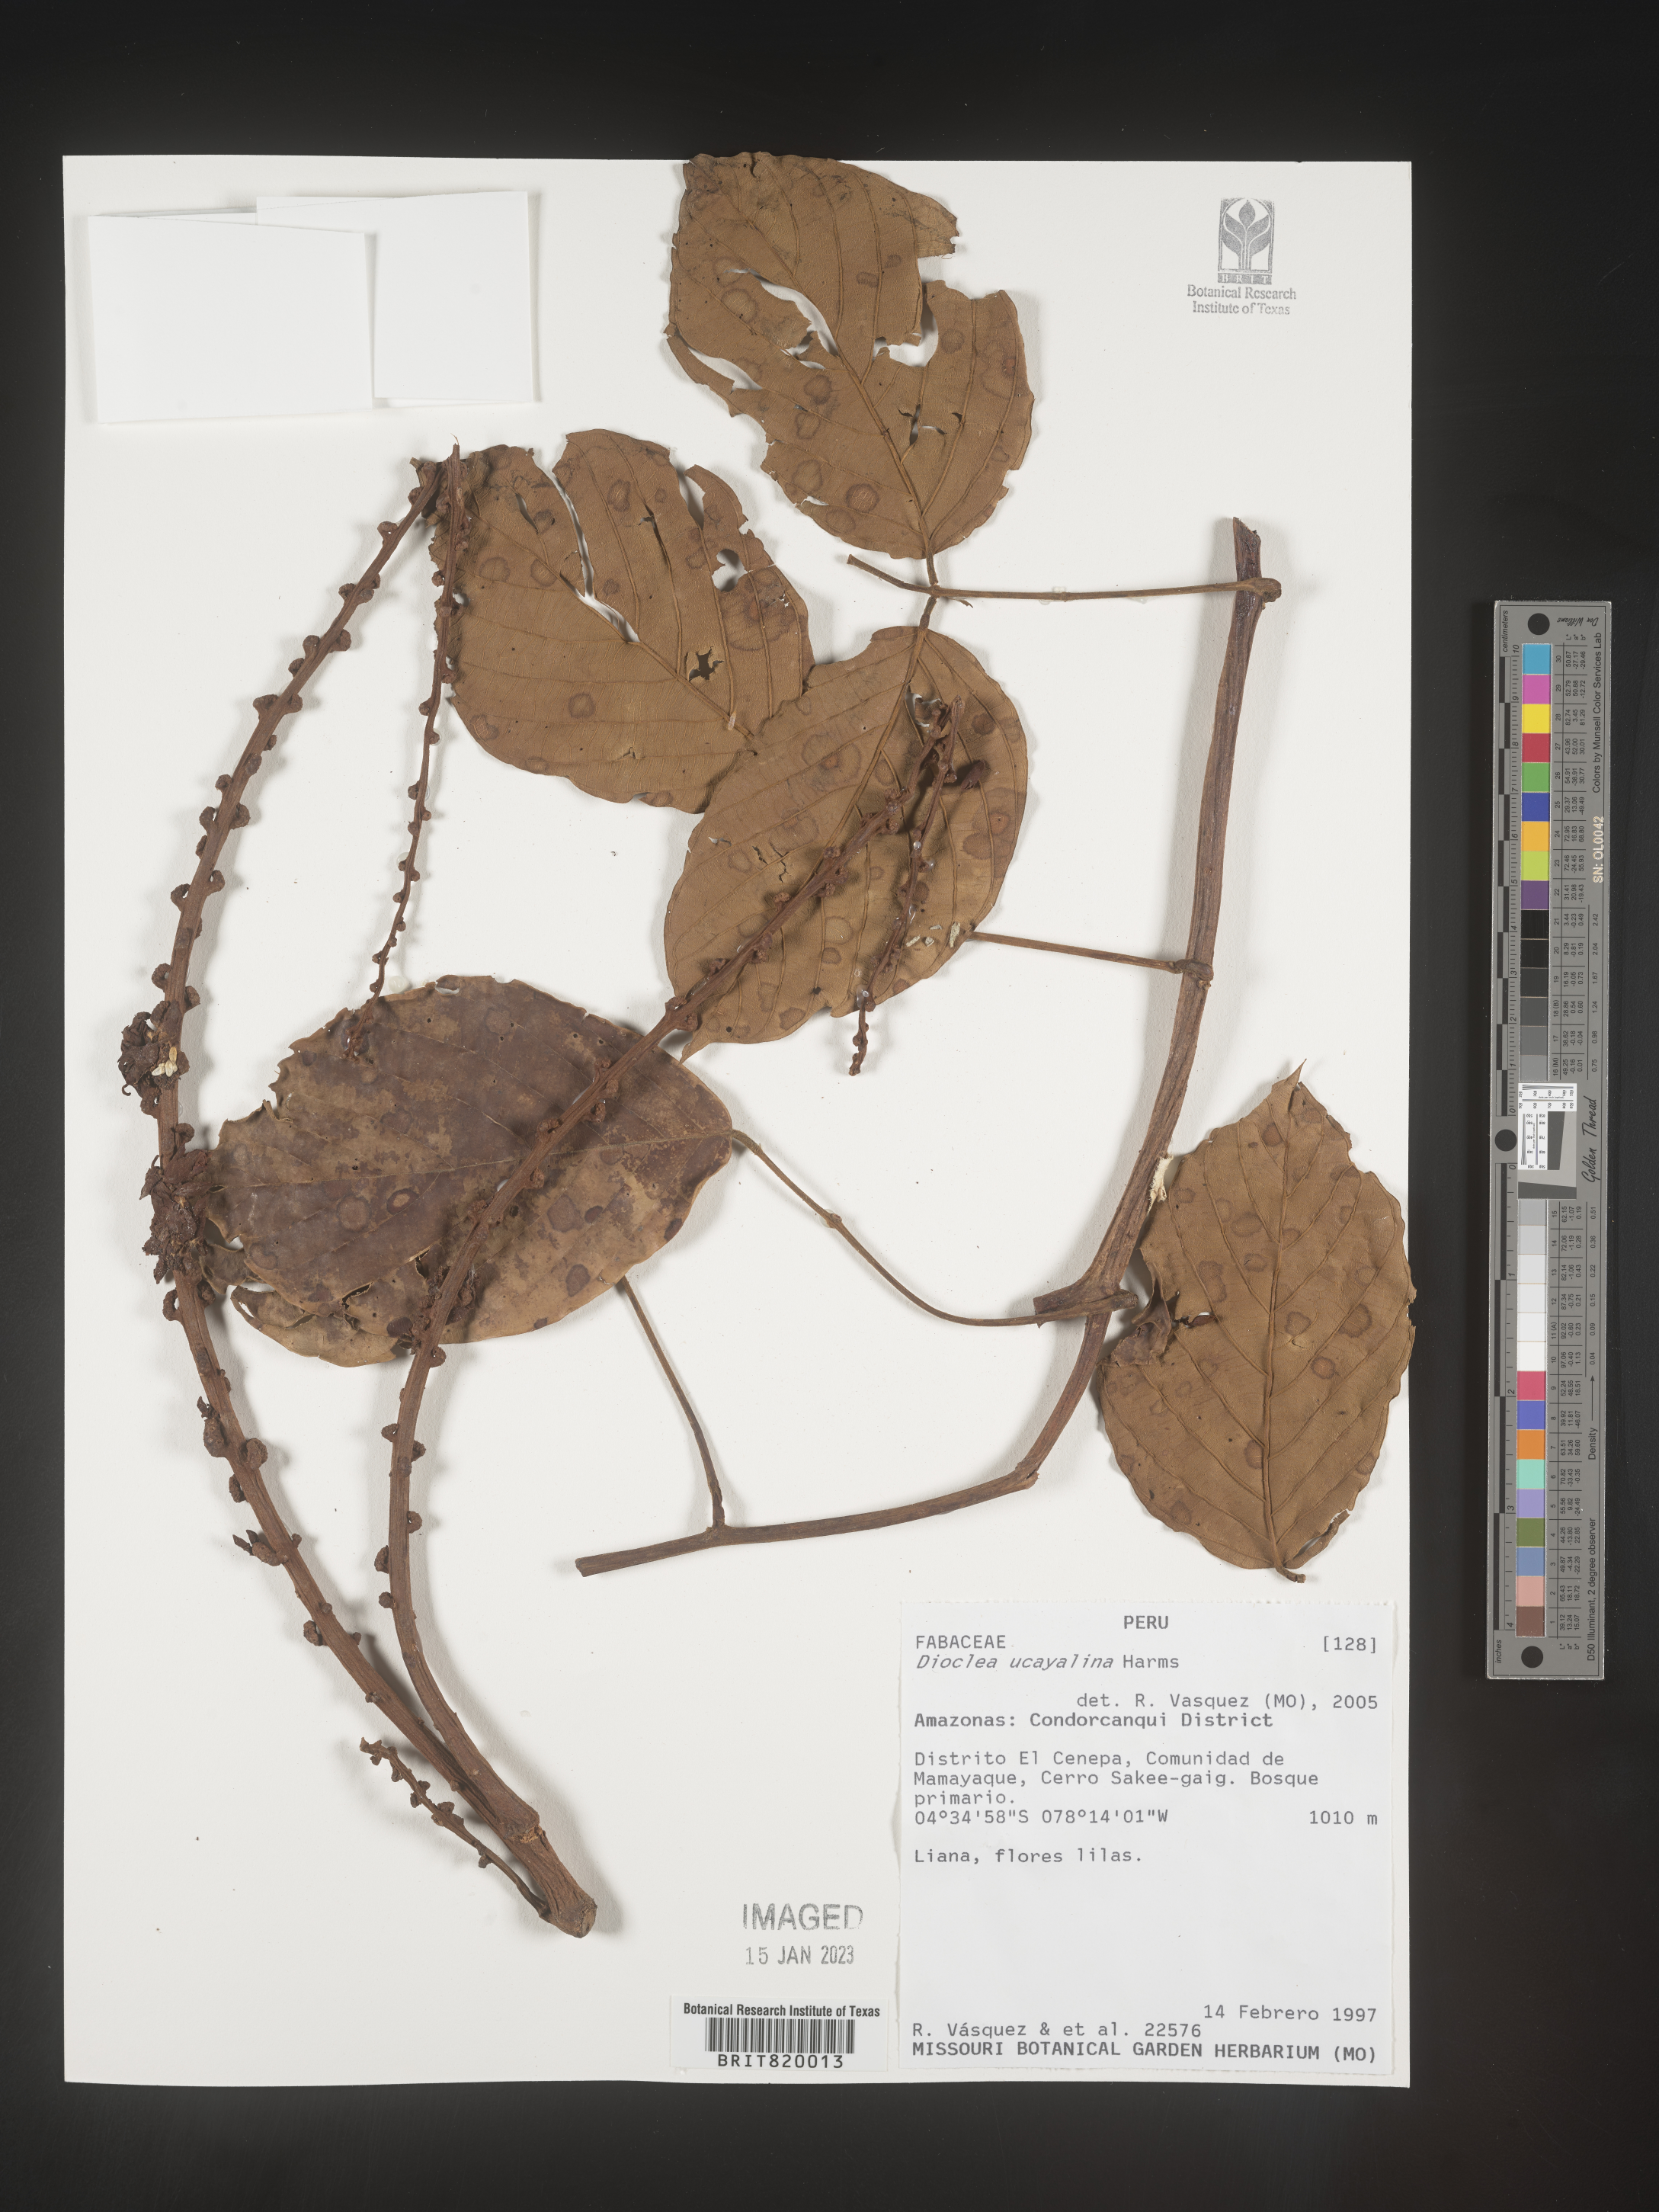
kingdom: Plantae
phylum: Tracheophyta
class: Magnoliopsida
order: Fabales
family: Fabaceae
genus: Dioclea
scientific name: Dioclea
